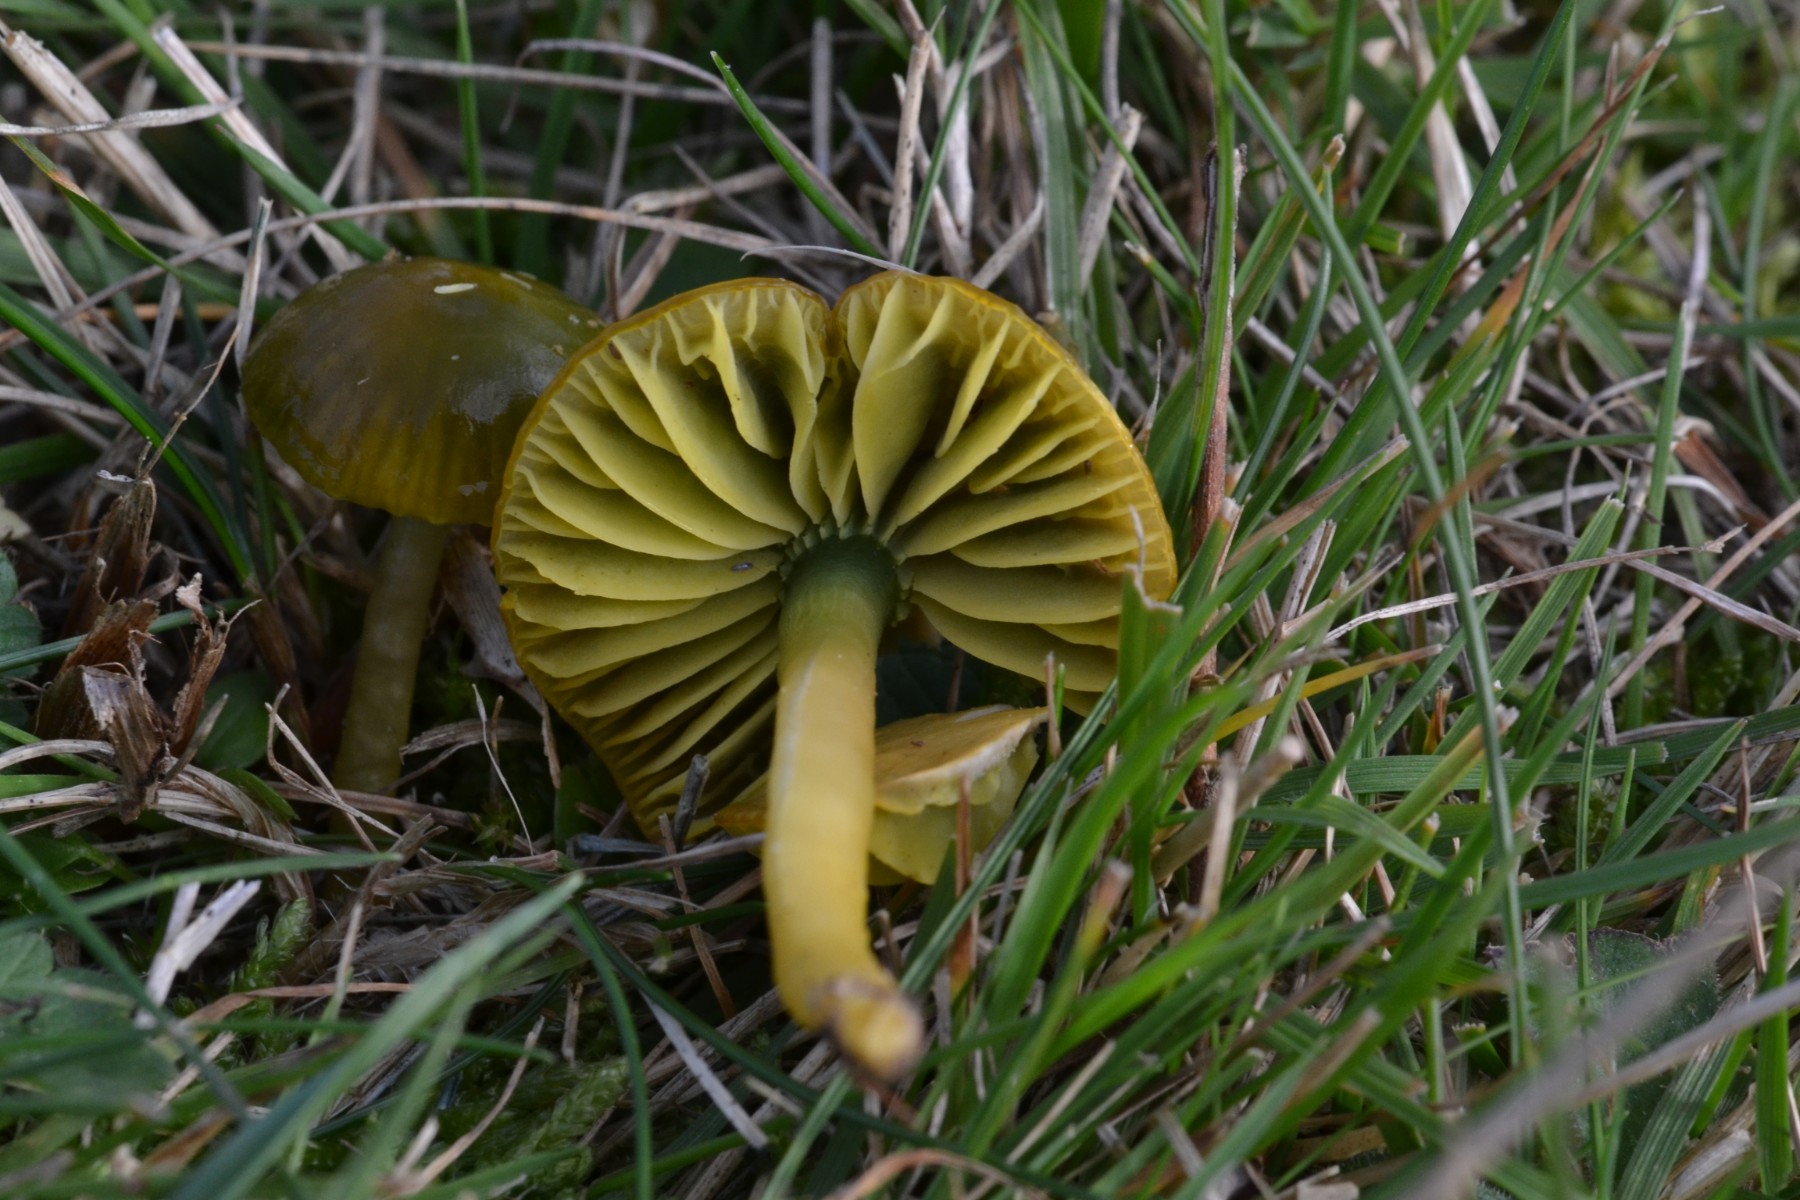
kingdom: Fungi
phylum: Basidiomycota
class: Agaricomycetes
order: Agaricales
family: Hygrophoraceae
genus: Gliophorus
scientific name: Gliophorus psittacinus
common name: papegøje-vokshat
